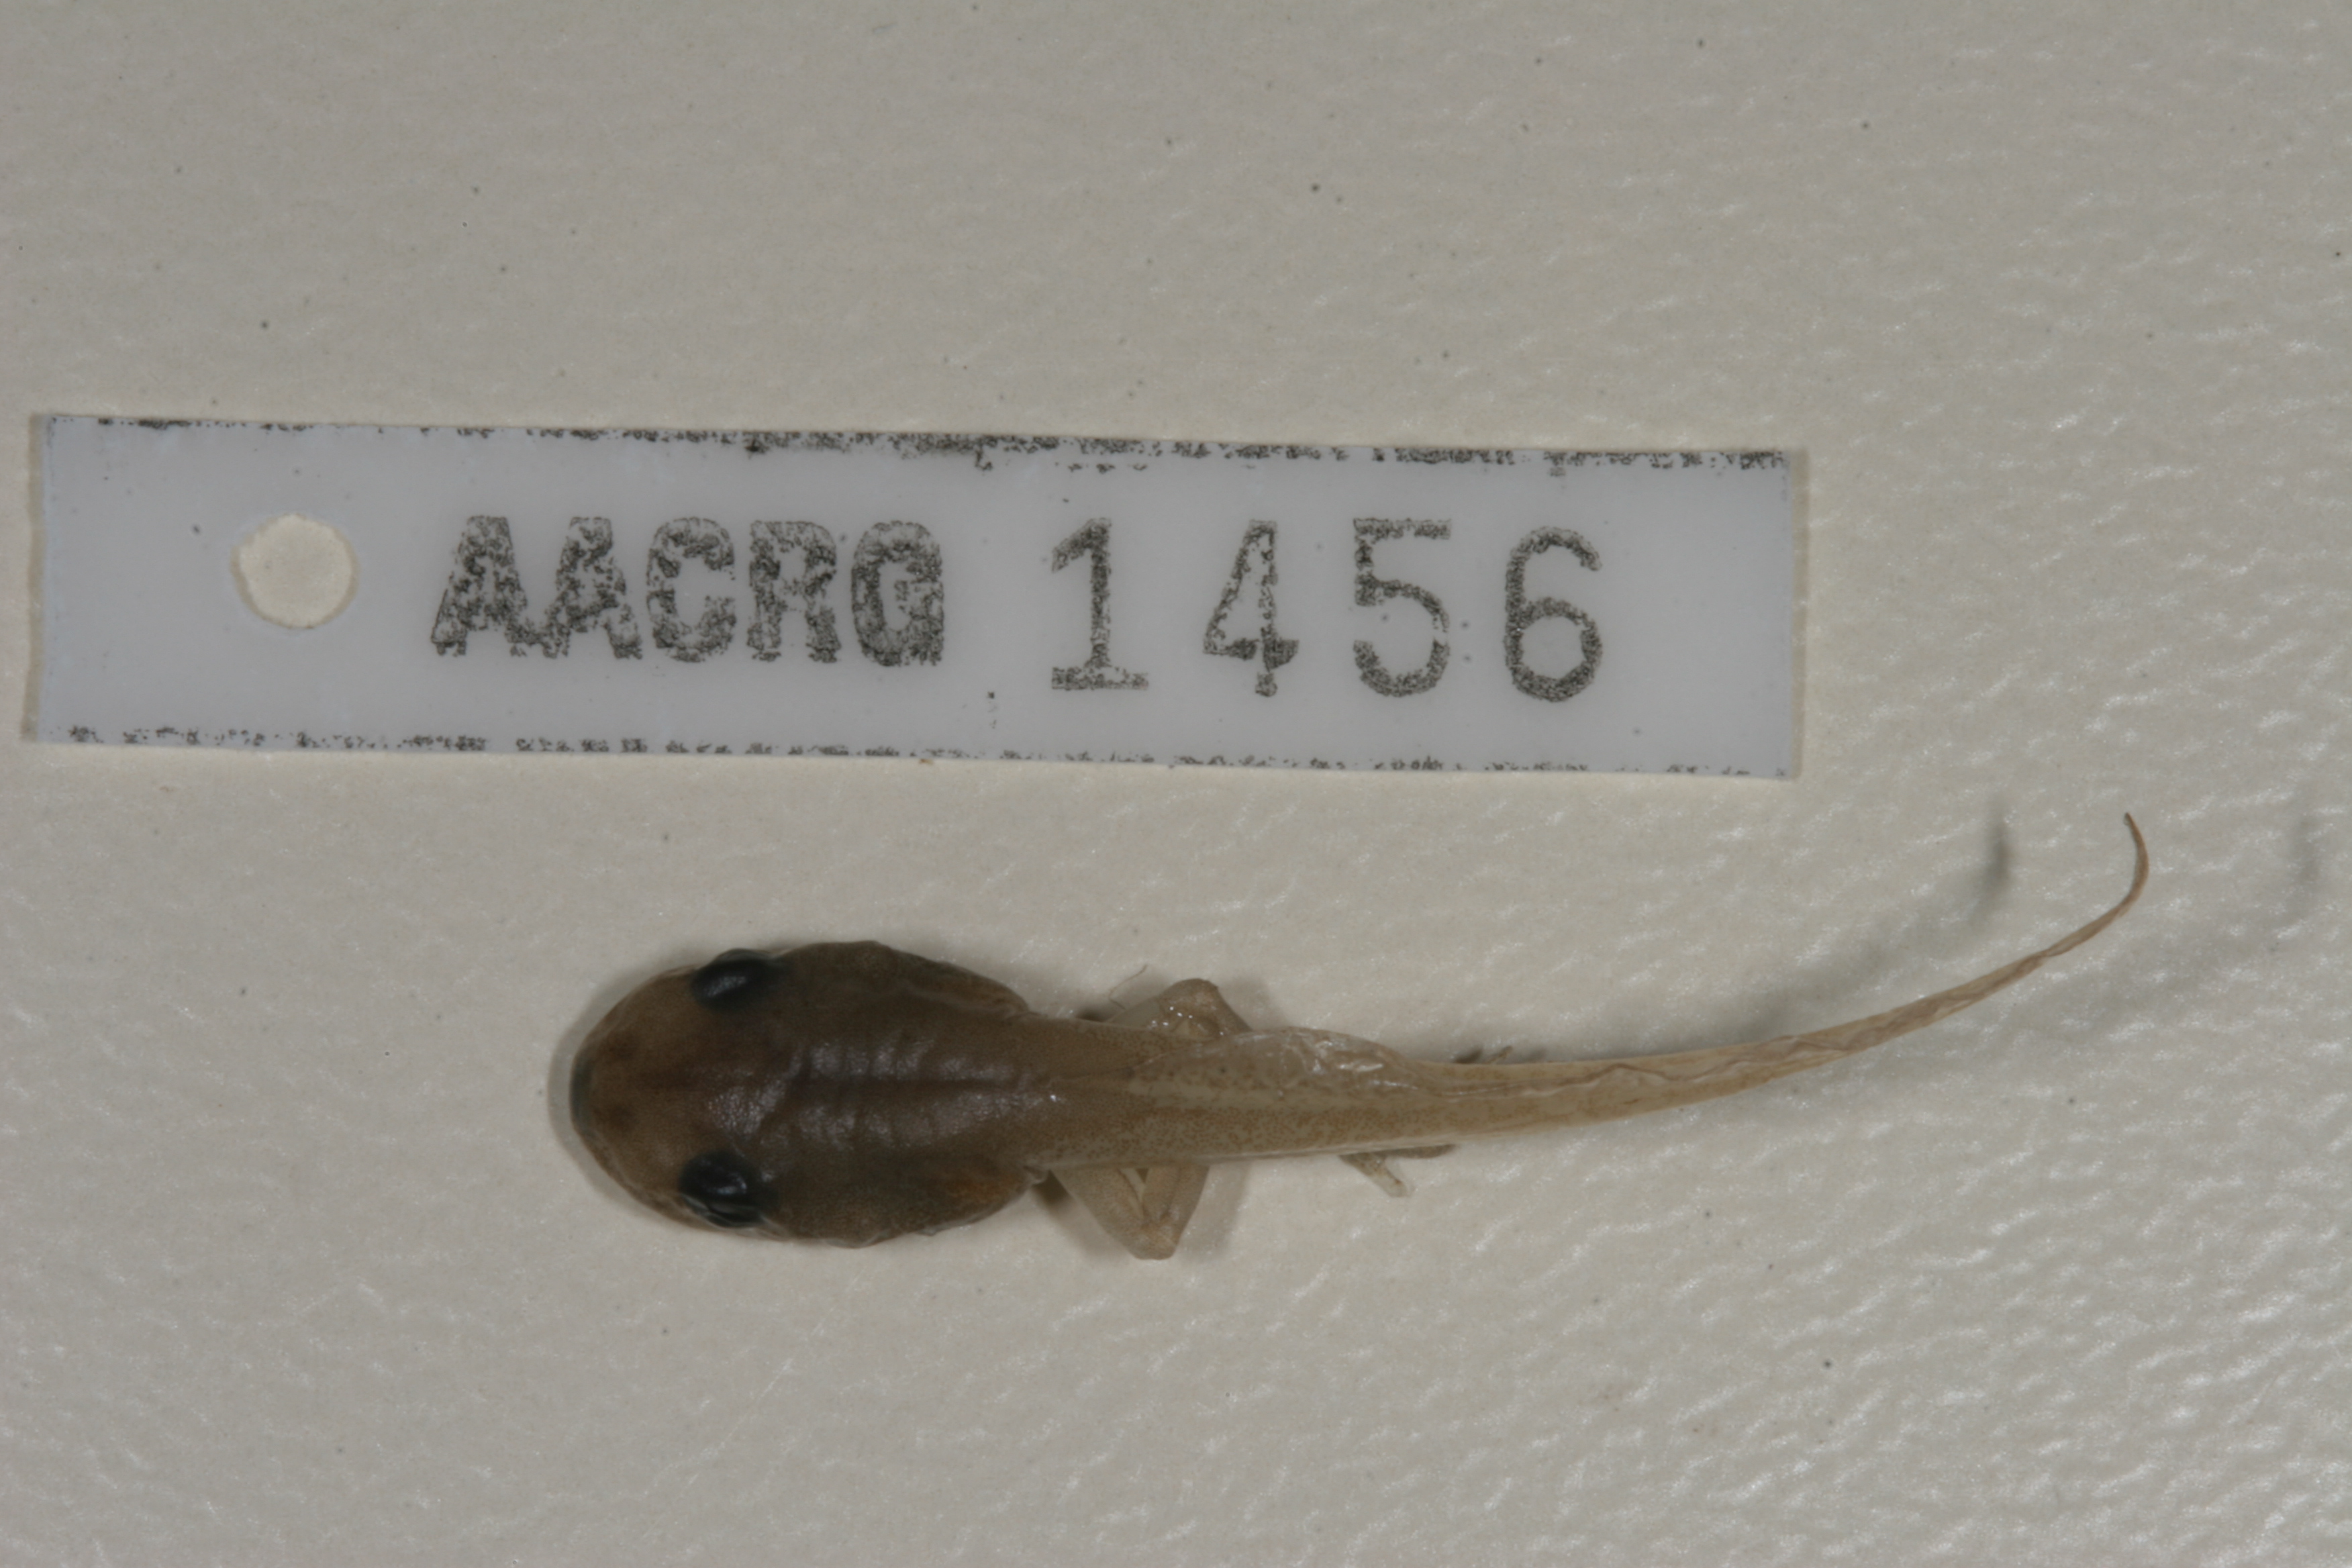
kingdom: Animalia
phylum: Chordata
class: Amphibia
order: Anura
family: Hyperoliidae
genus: Hyperolius
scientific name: Hyperolius marmoratus
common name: Painted reed frog
